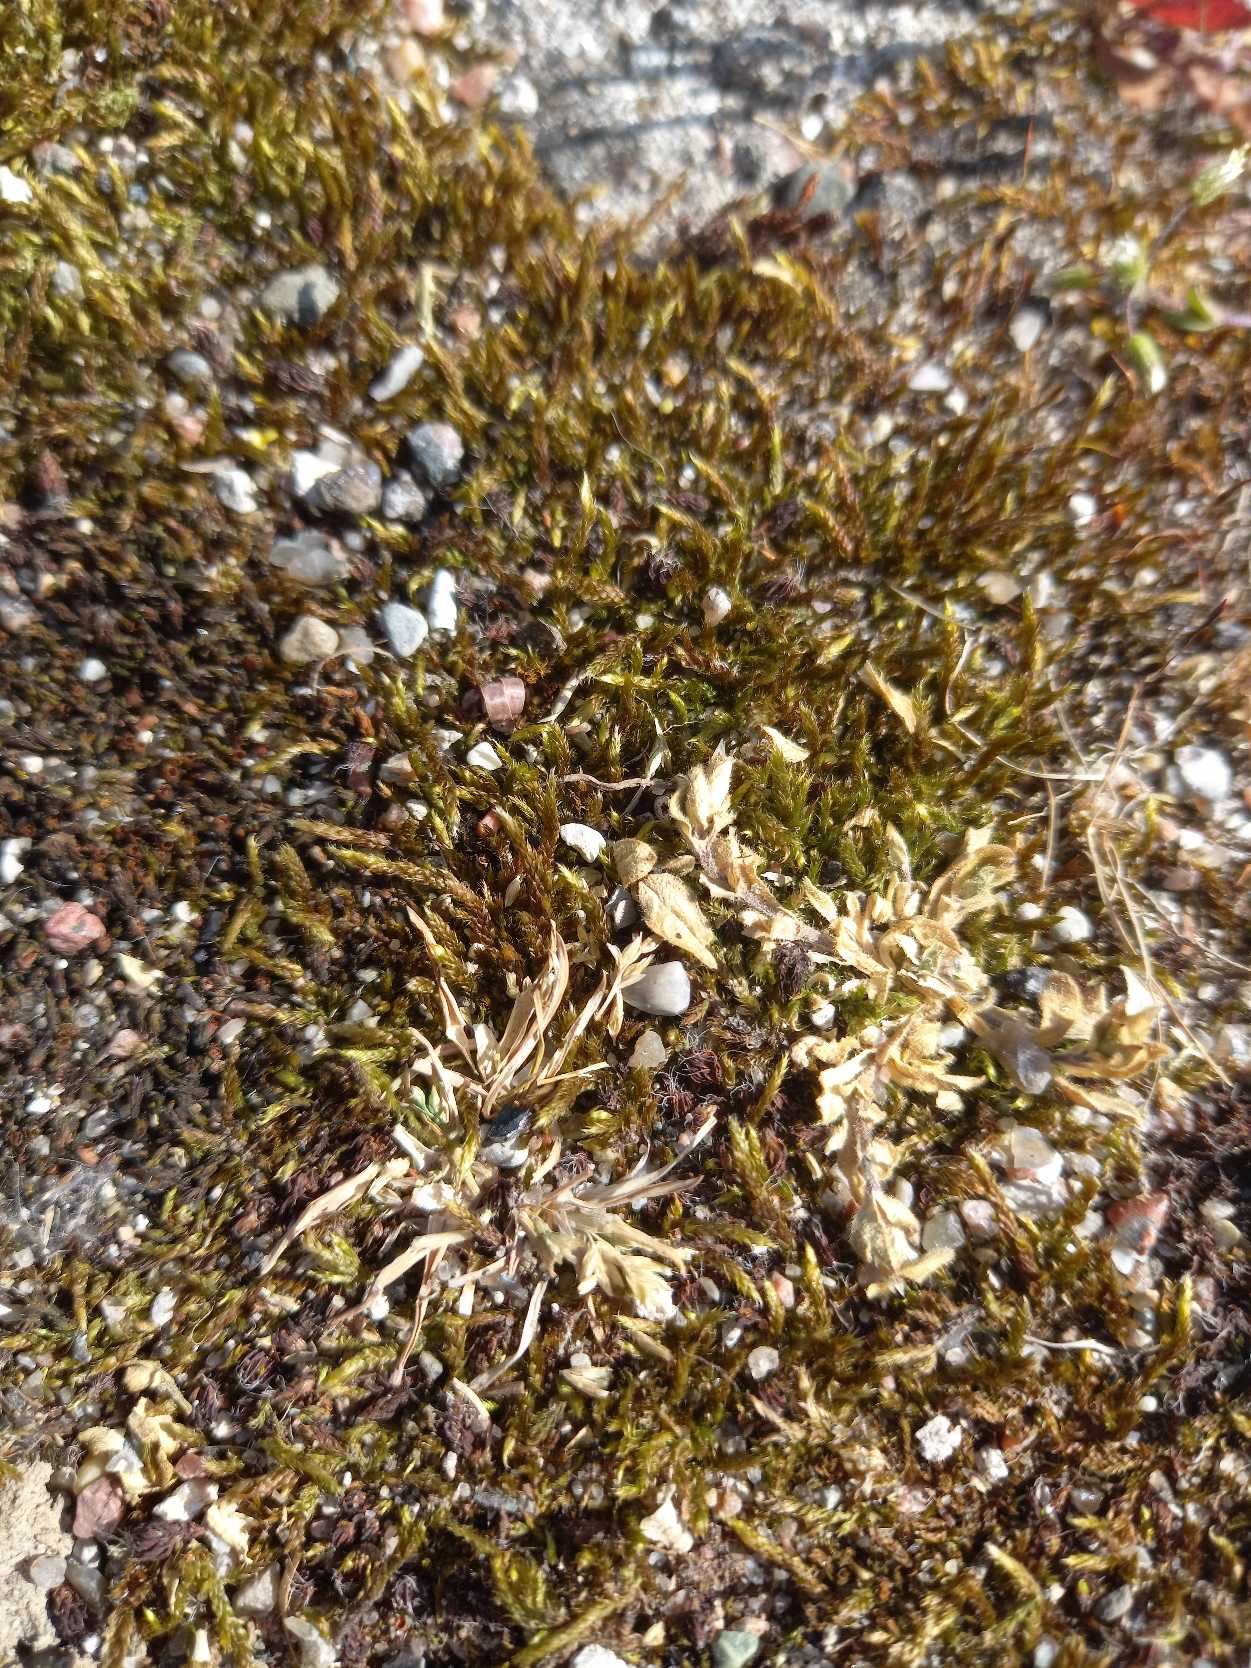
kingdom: Plantae
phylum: Bryophyta
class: Bryopsida
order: Hypnales
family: Hypnaceae
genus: Hypnum
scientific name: Hypnum cupressiforme
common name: Almindelig cypresmos
